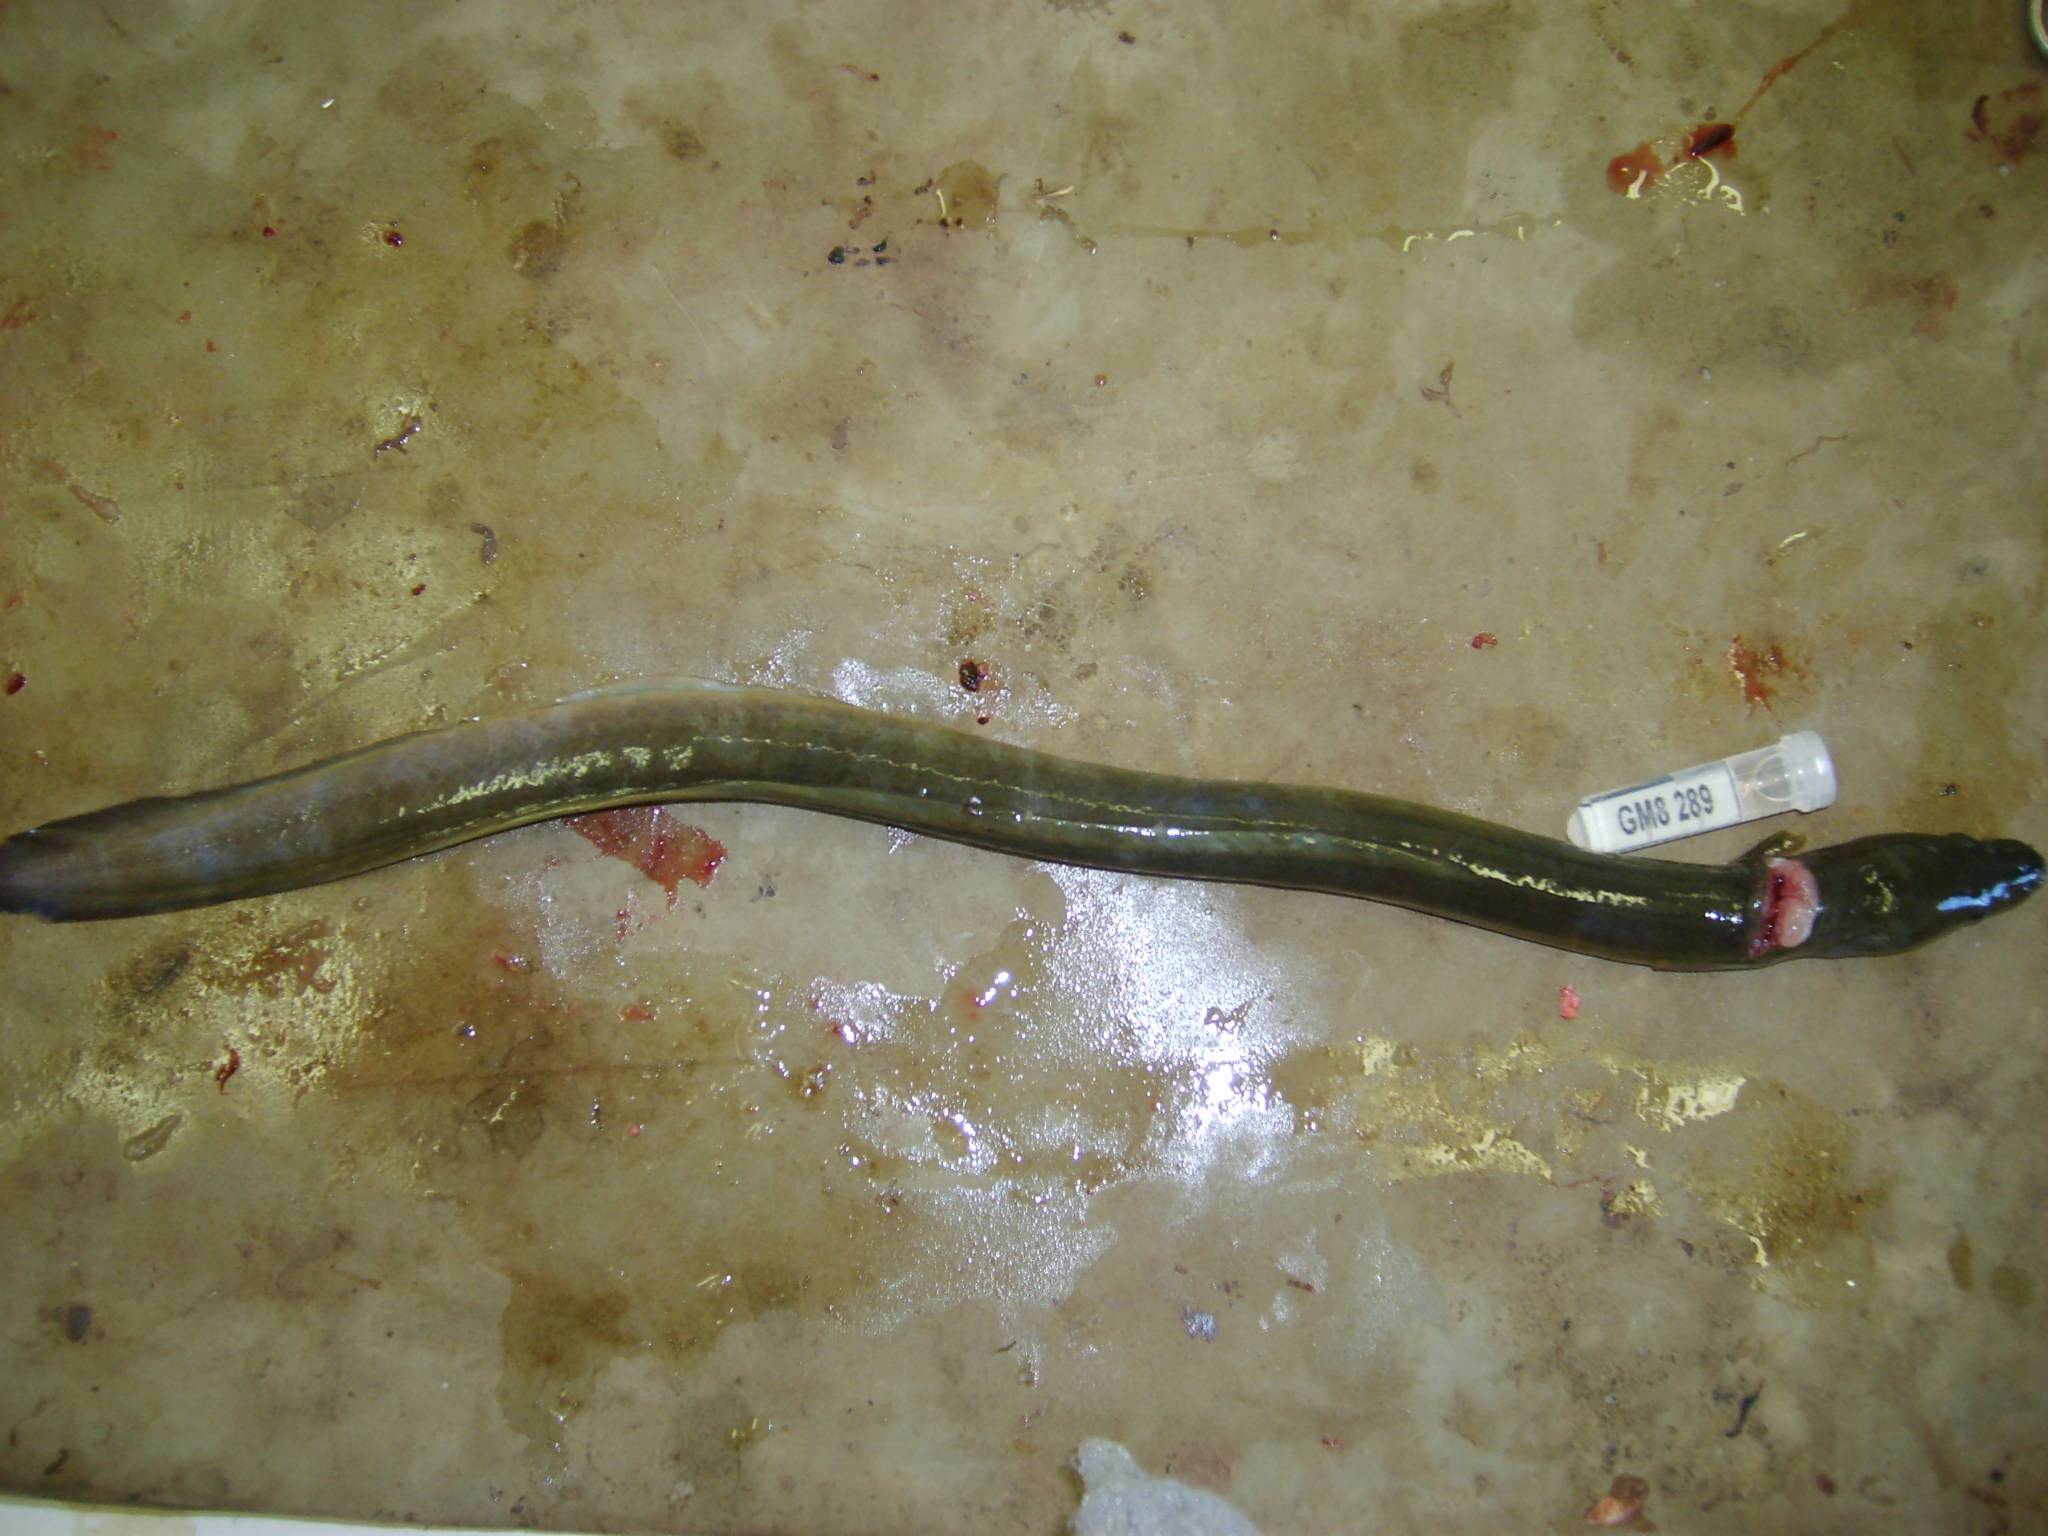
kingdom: Animalia
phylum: Chordata
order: Anguilliformes
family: Anguillidae
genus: Anguilla
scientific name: Anguilla mossambica
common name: African longfin eel
